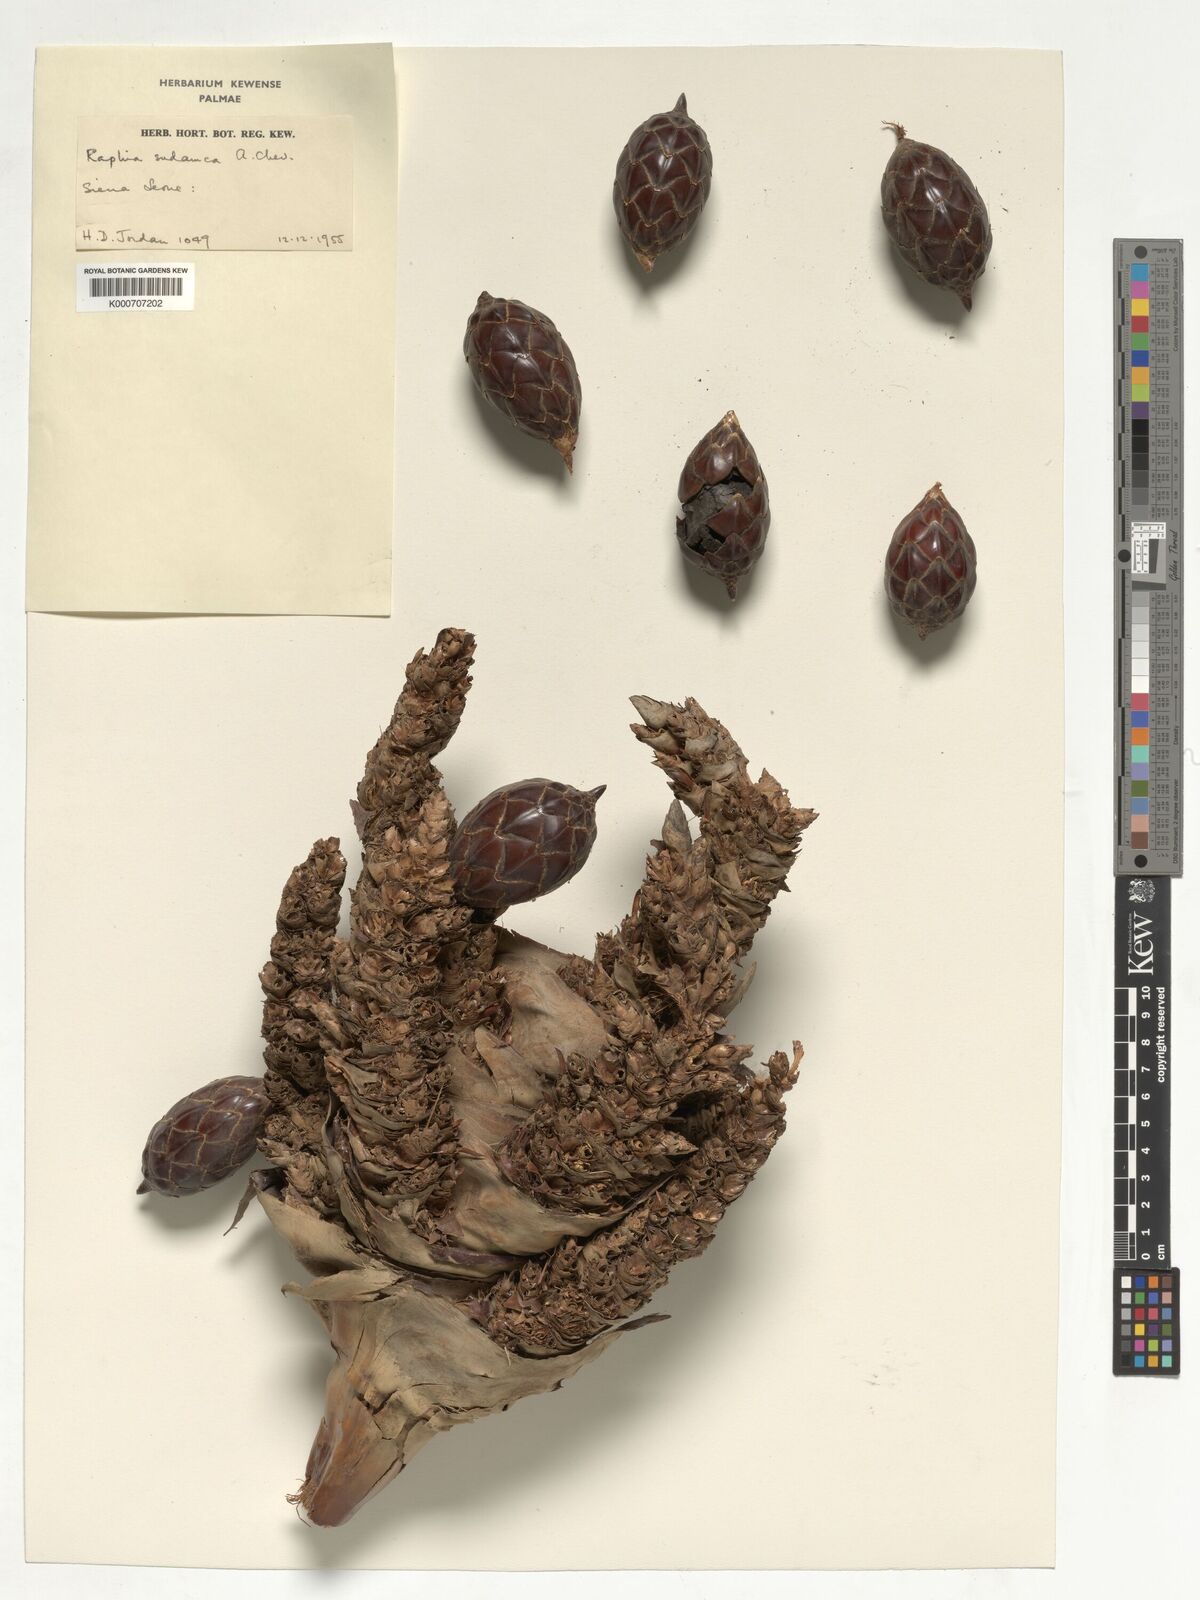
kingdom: Plantae
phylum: Tracheophyta
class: Liliopsida
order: Arecales
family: Arecaceae
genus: Raphia
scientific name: Raphia sudanica
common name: Northern raphia
